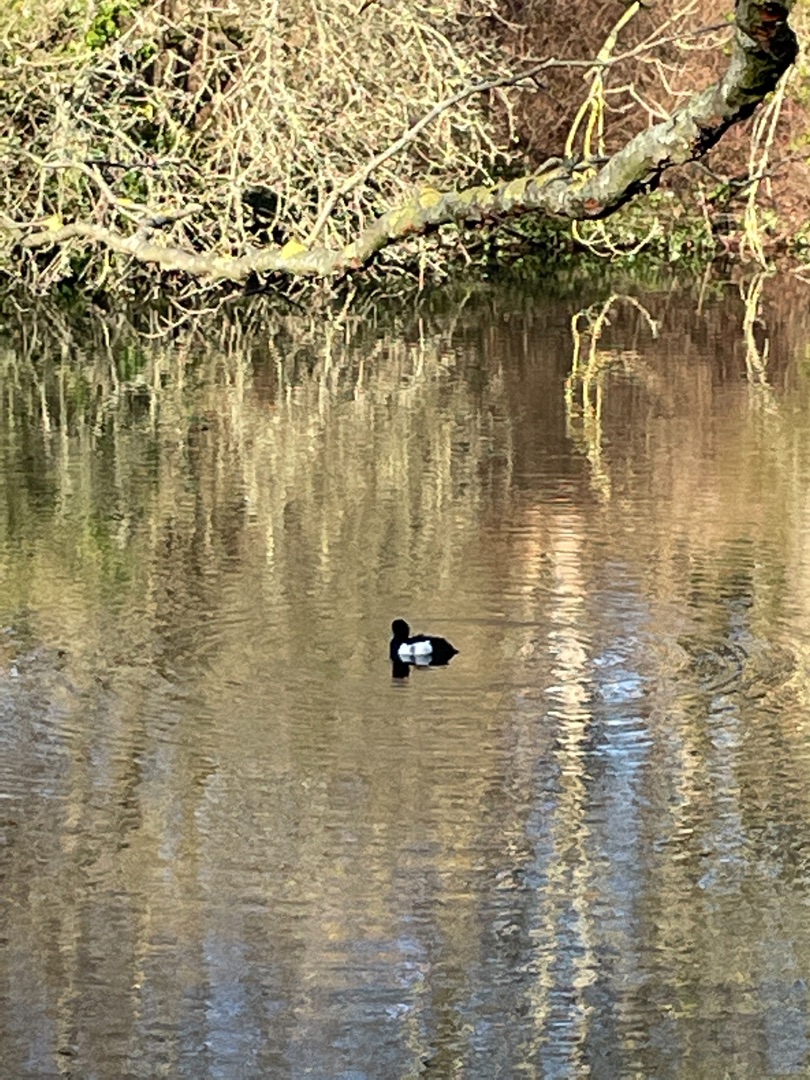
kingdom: Animalia
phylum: Chordata
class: Aves
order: Anseriformes
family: Anatidae
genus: Aythya
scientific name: Aythya fuligula
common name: Troldand
